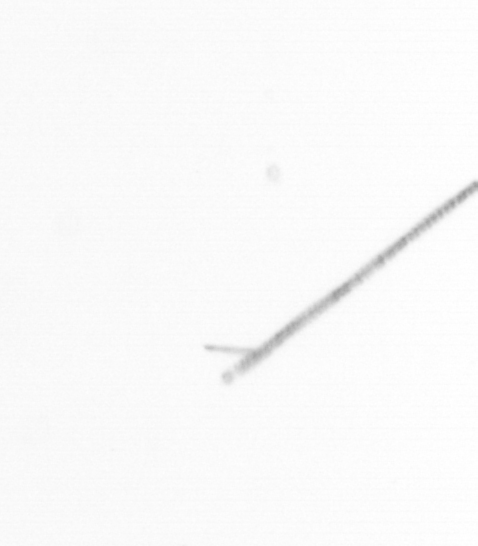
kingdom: Chromista
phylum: Ochrophyta
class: Bacillariophyceae
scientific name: Bacillariophyceae
